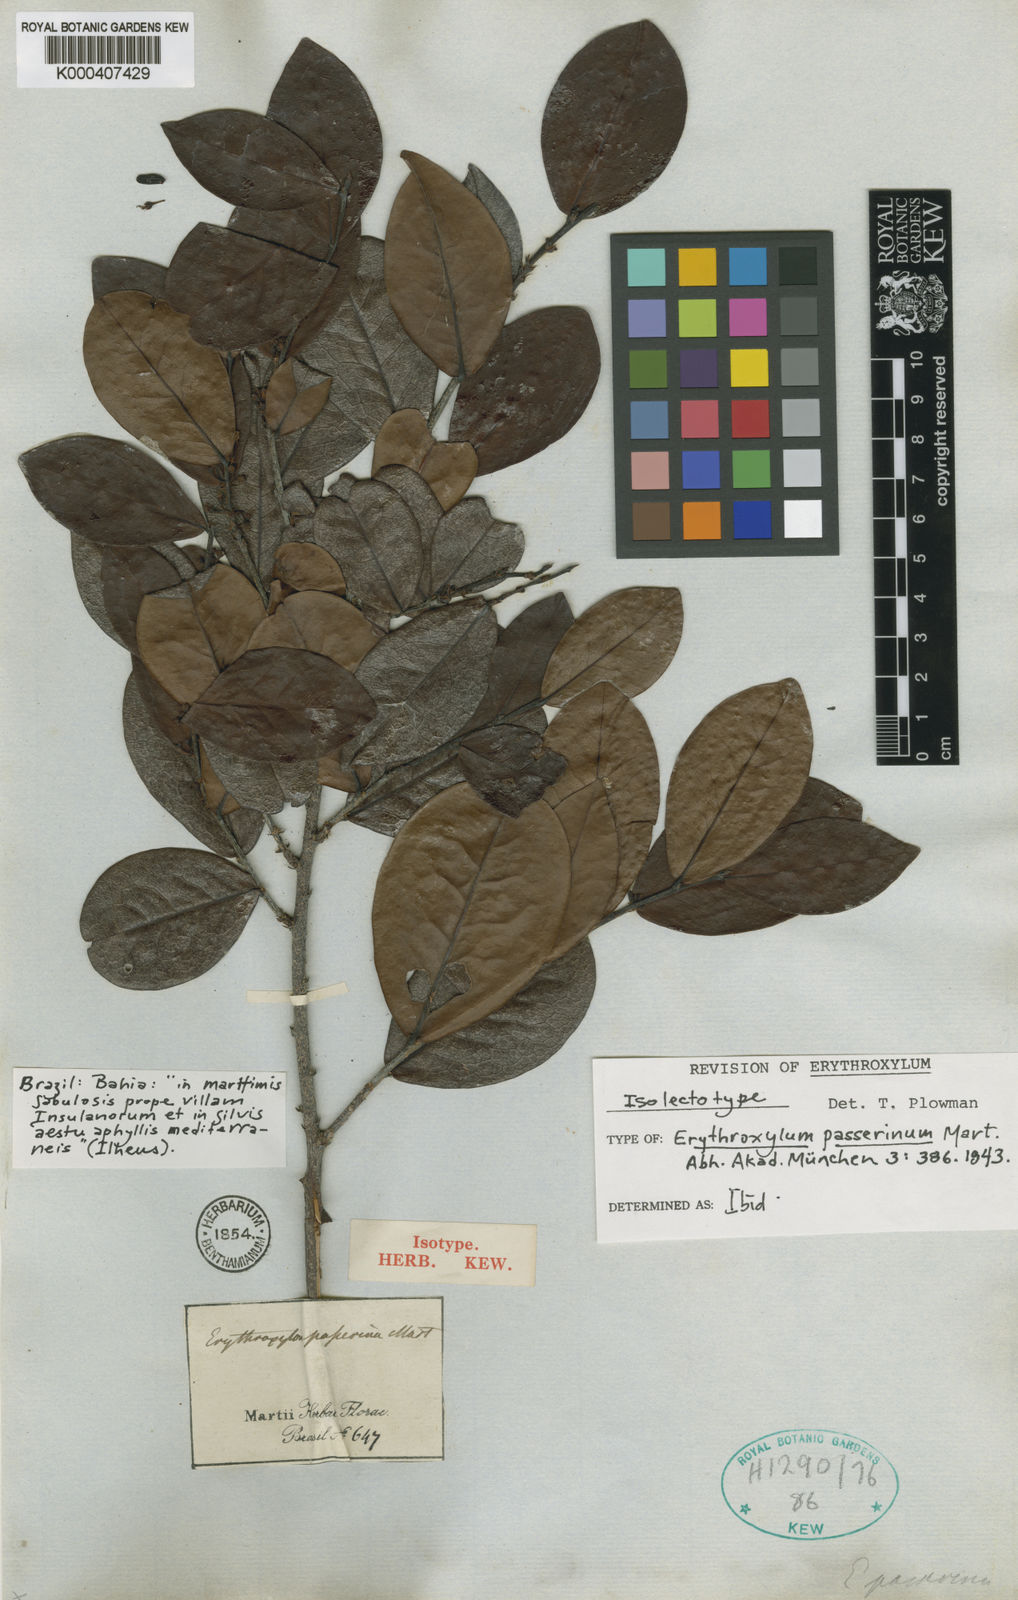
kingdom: Plantae
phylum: Tracheophyta
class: Magnoliopsida
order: Malpighiales
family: Erythroxylaceae
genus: Erythroxylum
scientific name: Erythroxylum passerinum
